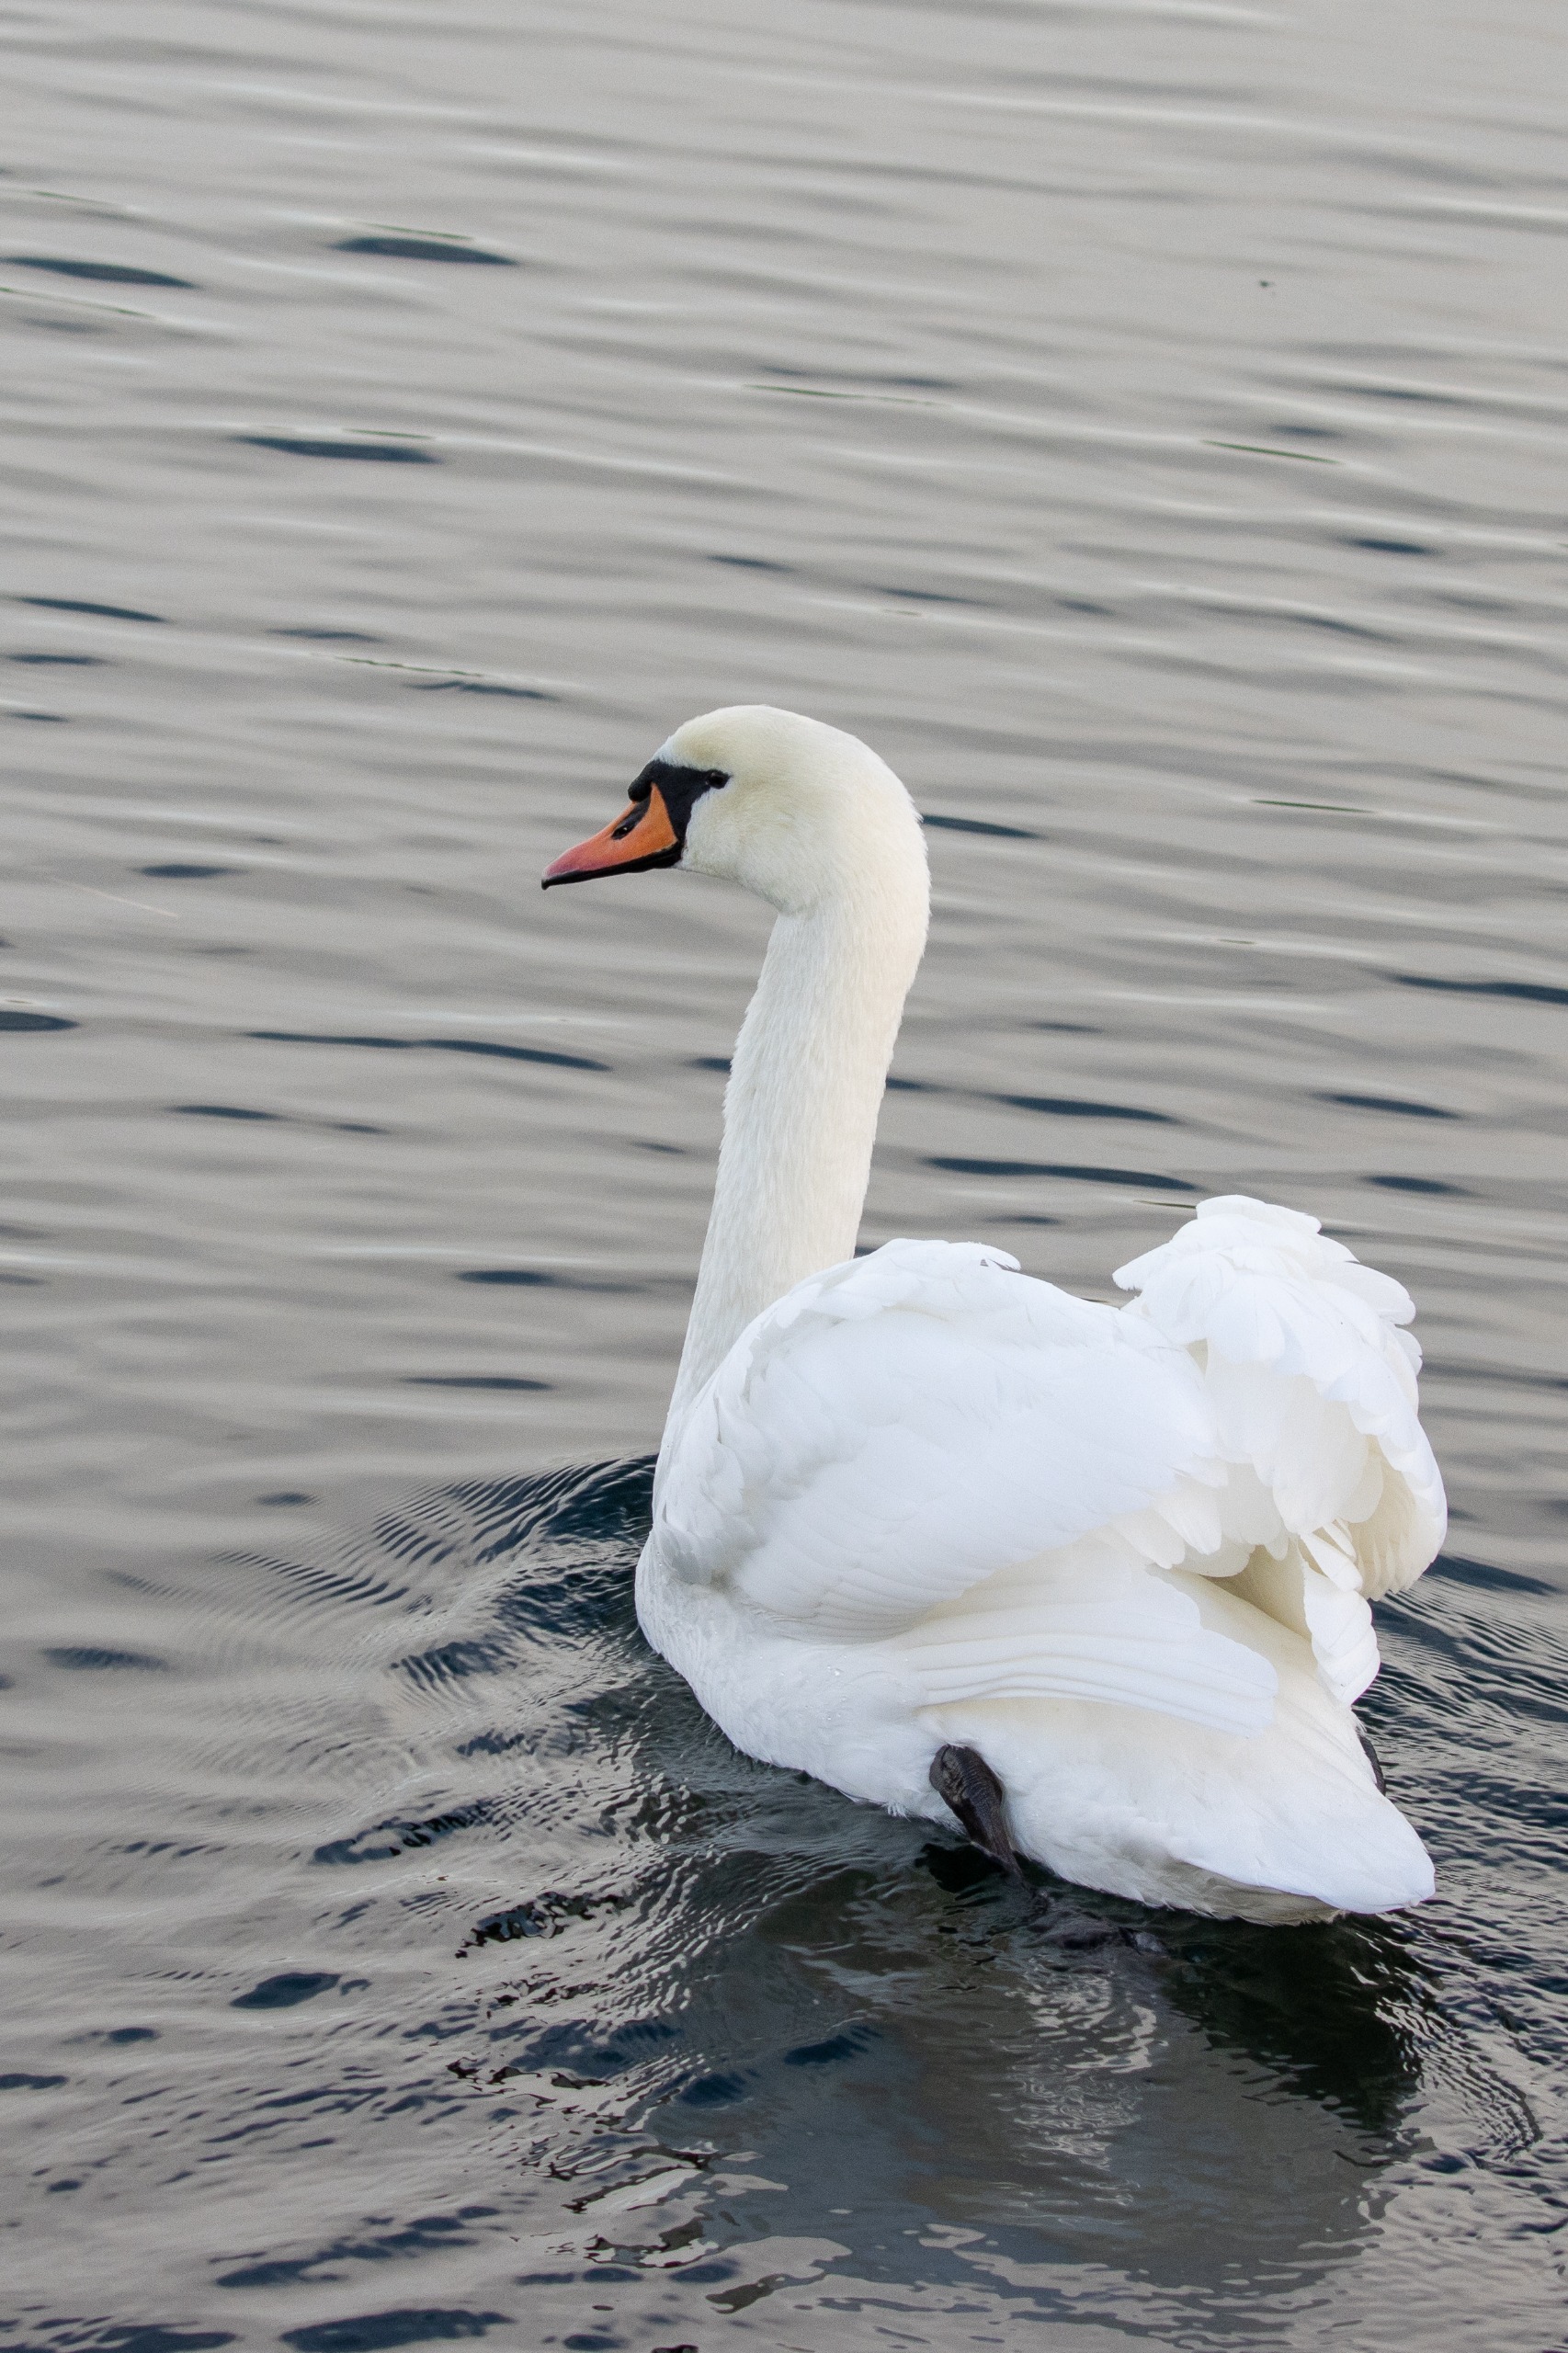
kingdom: Animalia
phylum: Chordata
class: Aves
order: Anseriformes
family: Anatidae
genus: Cygnus
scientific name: Cygnus olor
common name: Knopsvane
